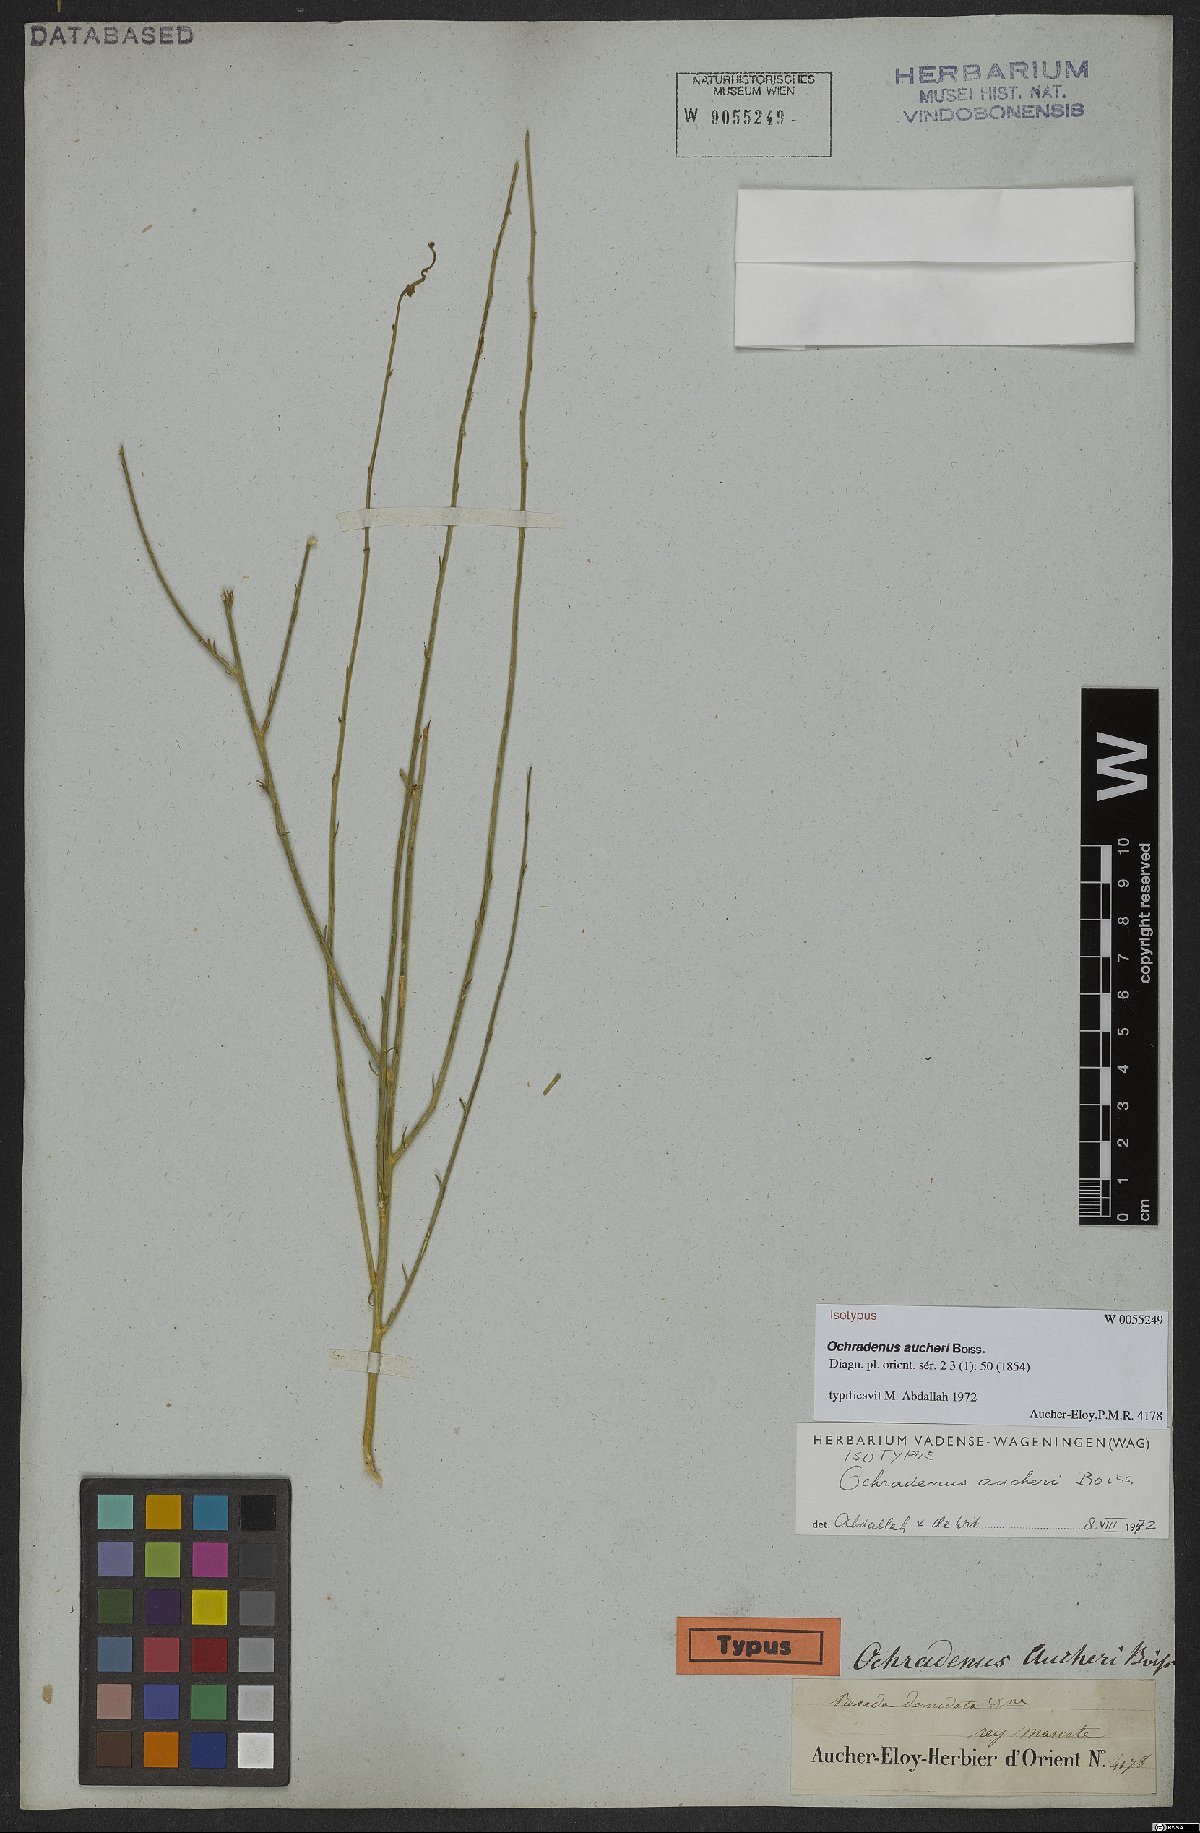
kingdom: Plantae
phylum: Tracheophyta
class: Magnoliopsida
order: Brassicales
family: Resedaceae
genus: Ochradiscus
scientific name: Ochradiscus aucheri
